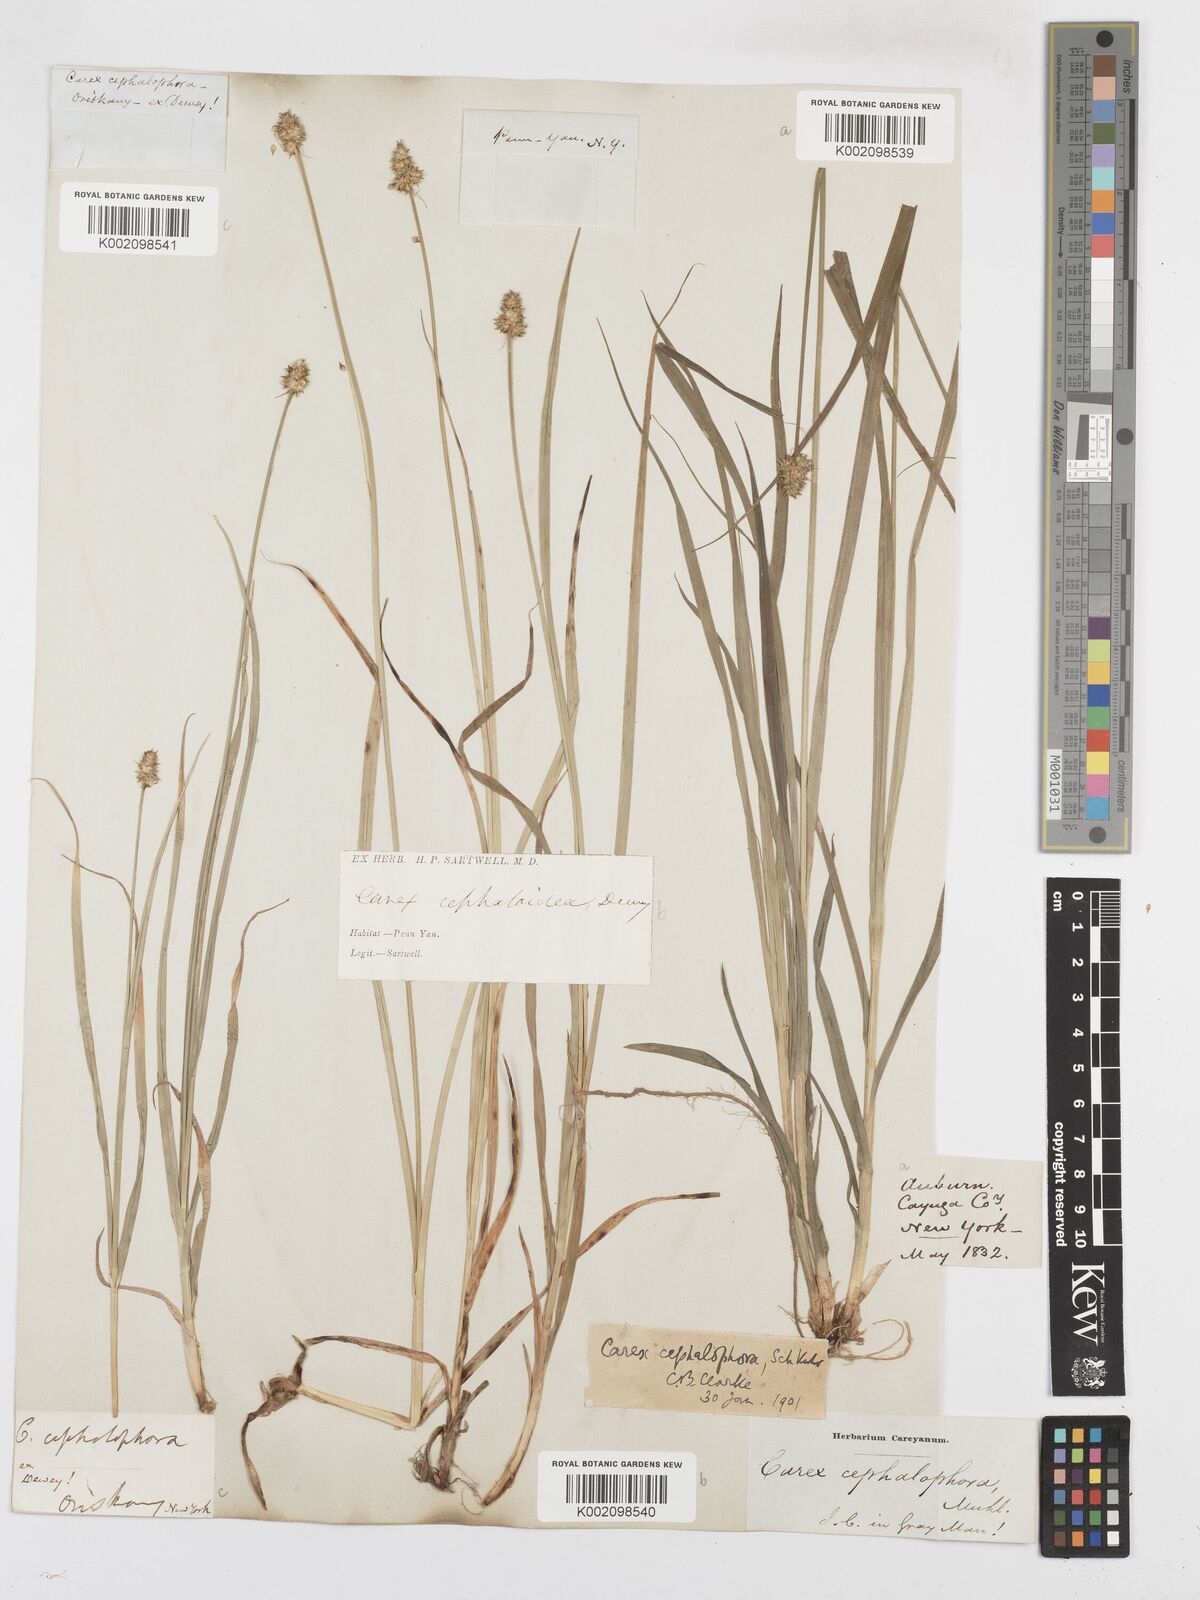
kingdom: Plantae
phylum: Tracheophyta
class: Liliopsida
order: Poales
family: Cyperaceae
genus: Carex
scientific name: Carex cephalophora
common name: Oval-headed sedge
